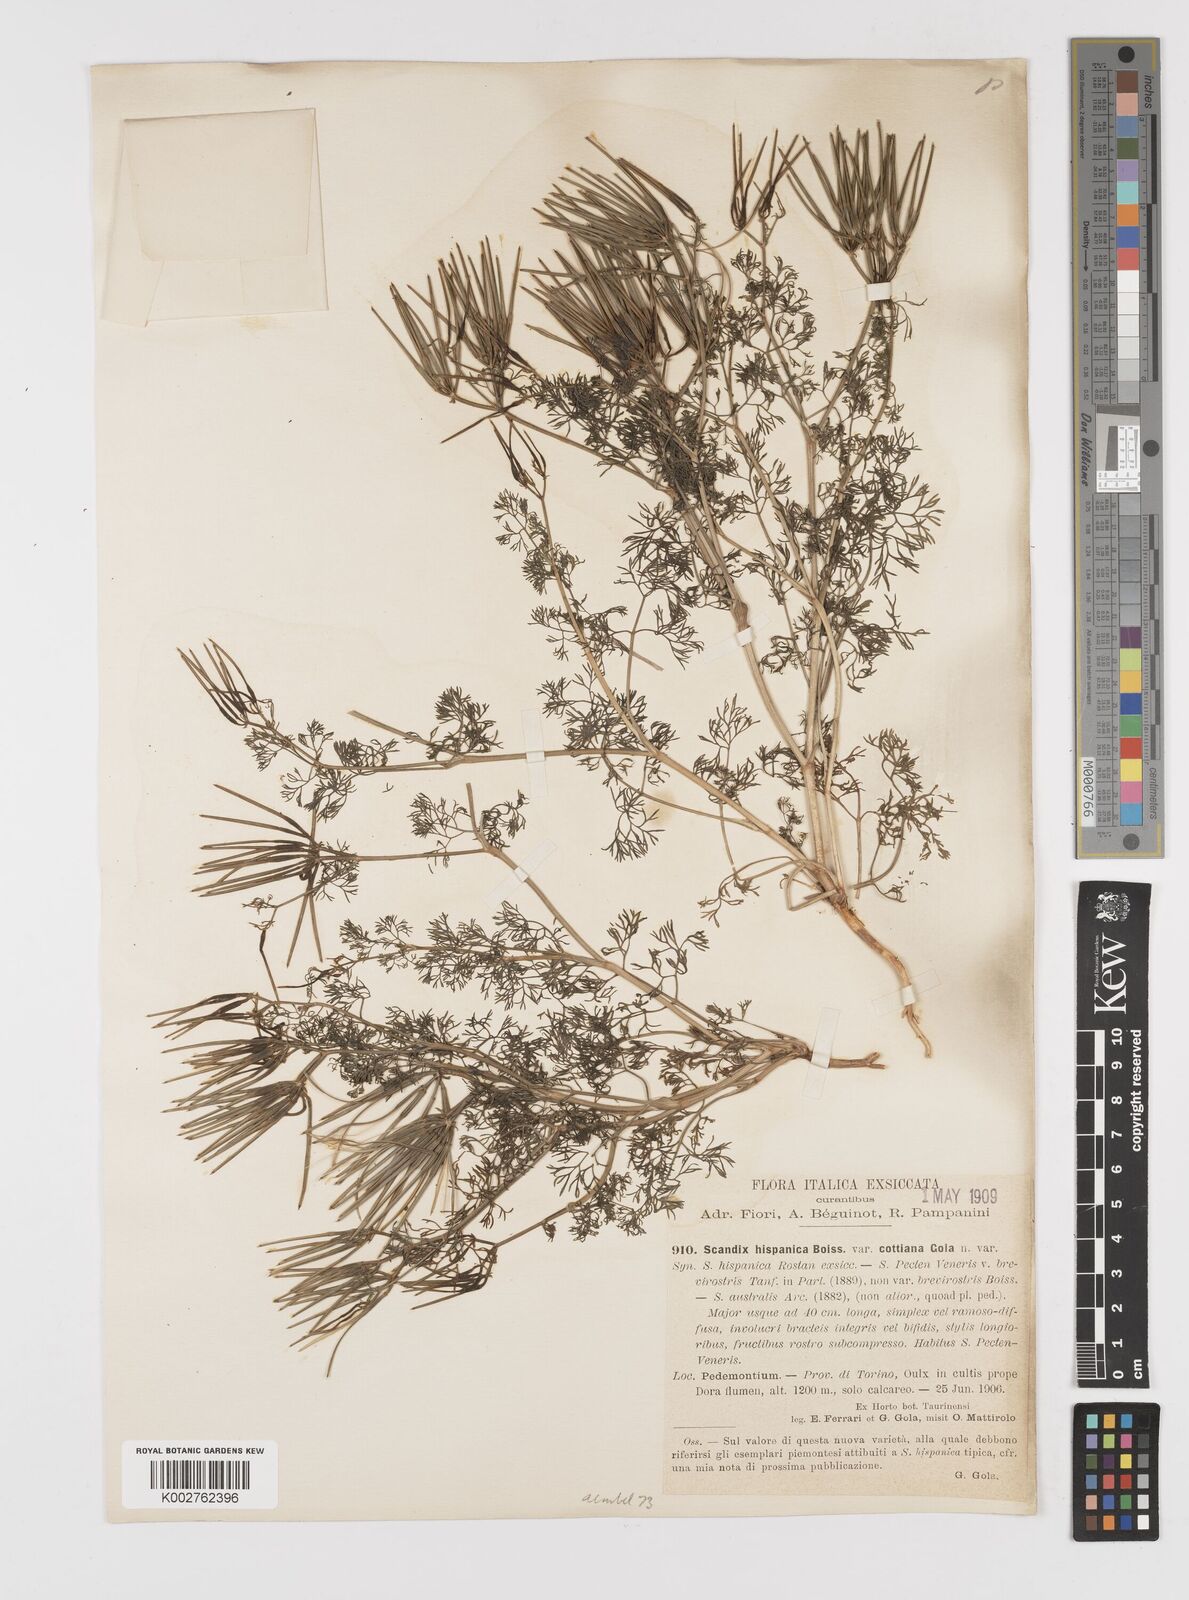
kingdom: Plantae
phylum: Tracheophyta
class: Magnoliopsida
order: Apiales
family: Apiaceae
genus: Scandix
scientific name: Scandix pecten-veneris
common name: Shepherd's-needle
